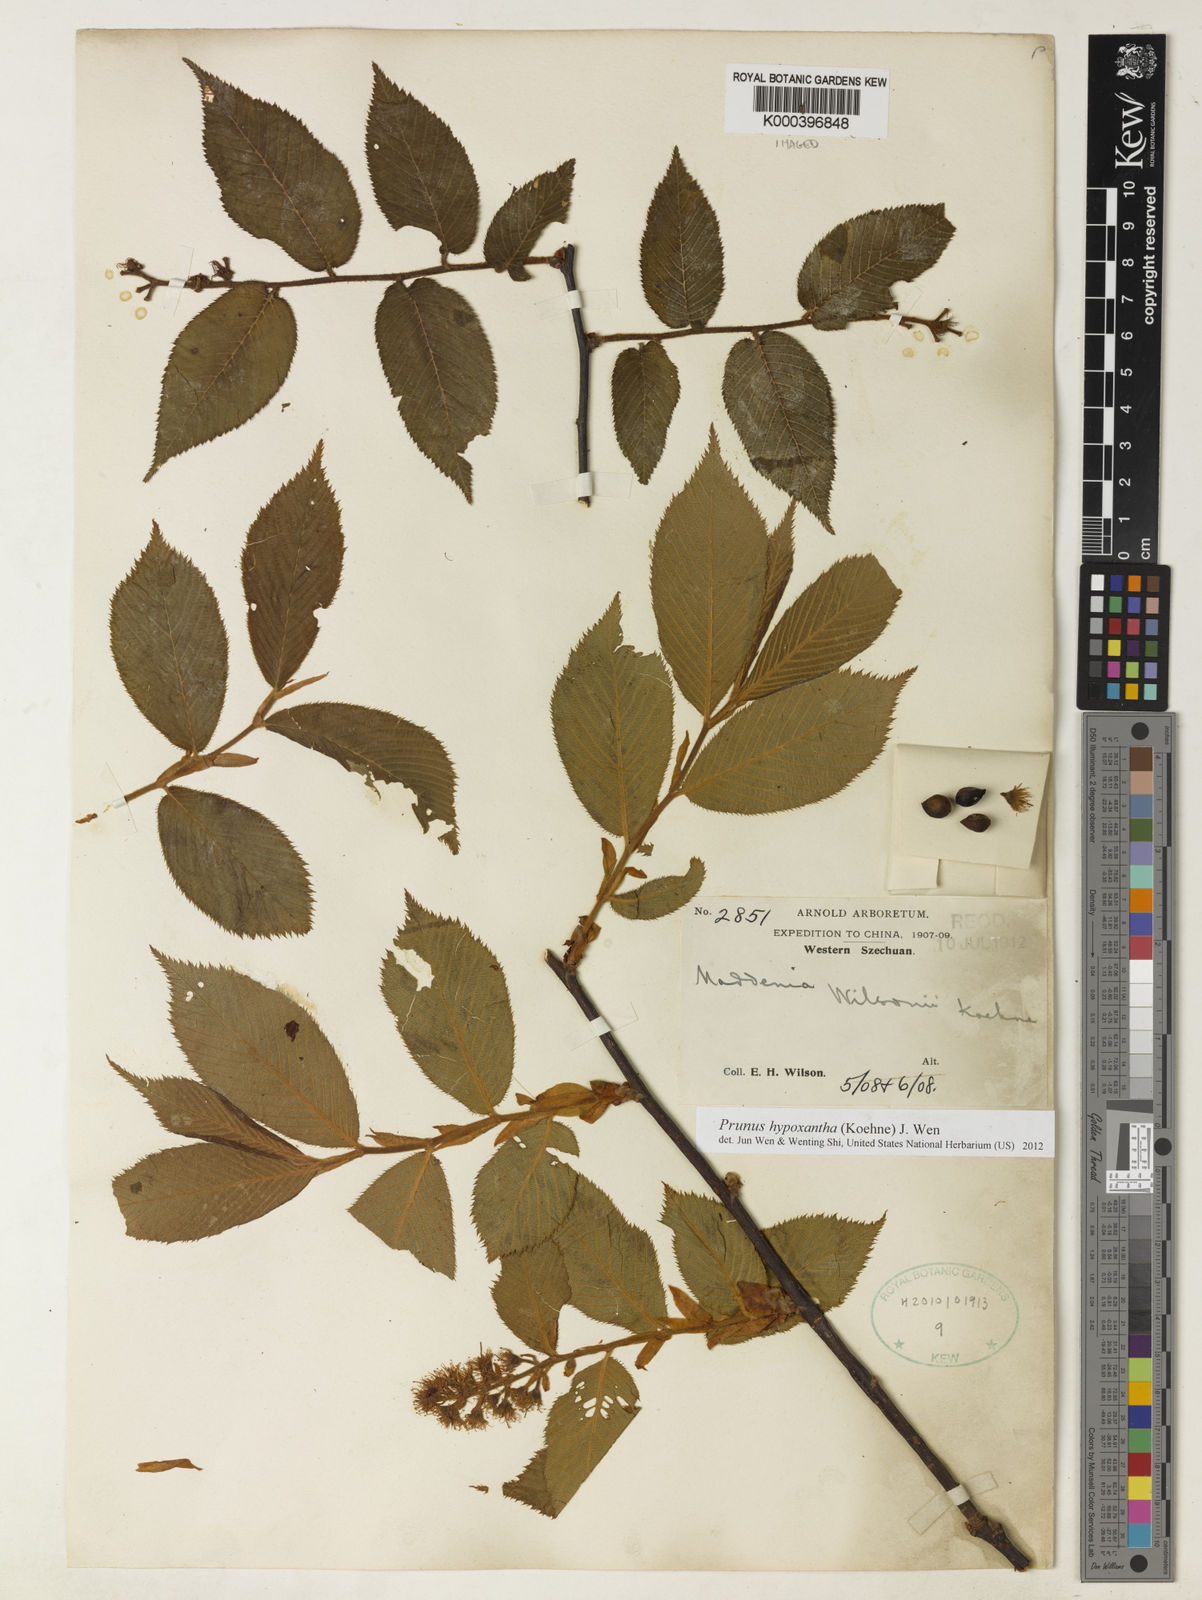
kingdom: Plantae
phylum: Tracheophyta
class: Magnoliopsida
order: Rosales
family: Rosaceae
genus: Prunus
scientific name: Prunus hypoxantha
